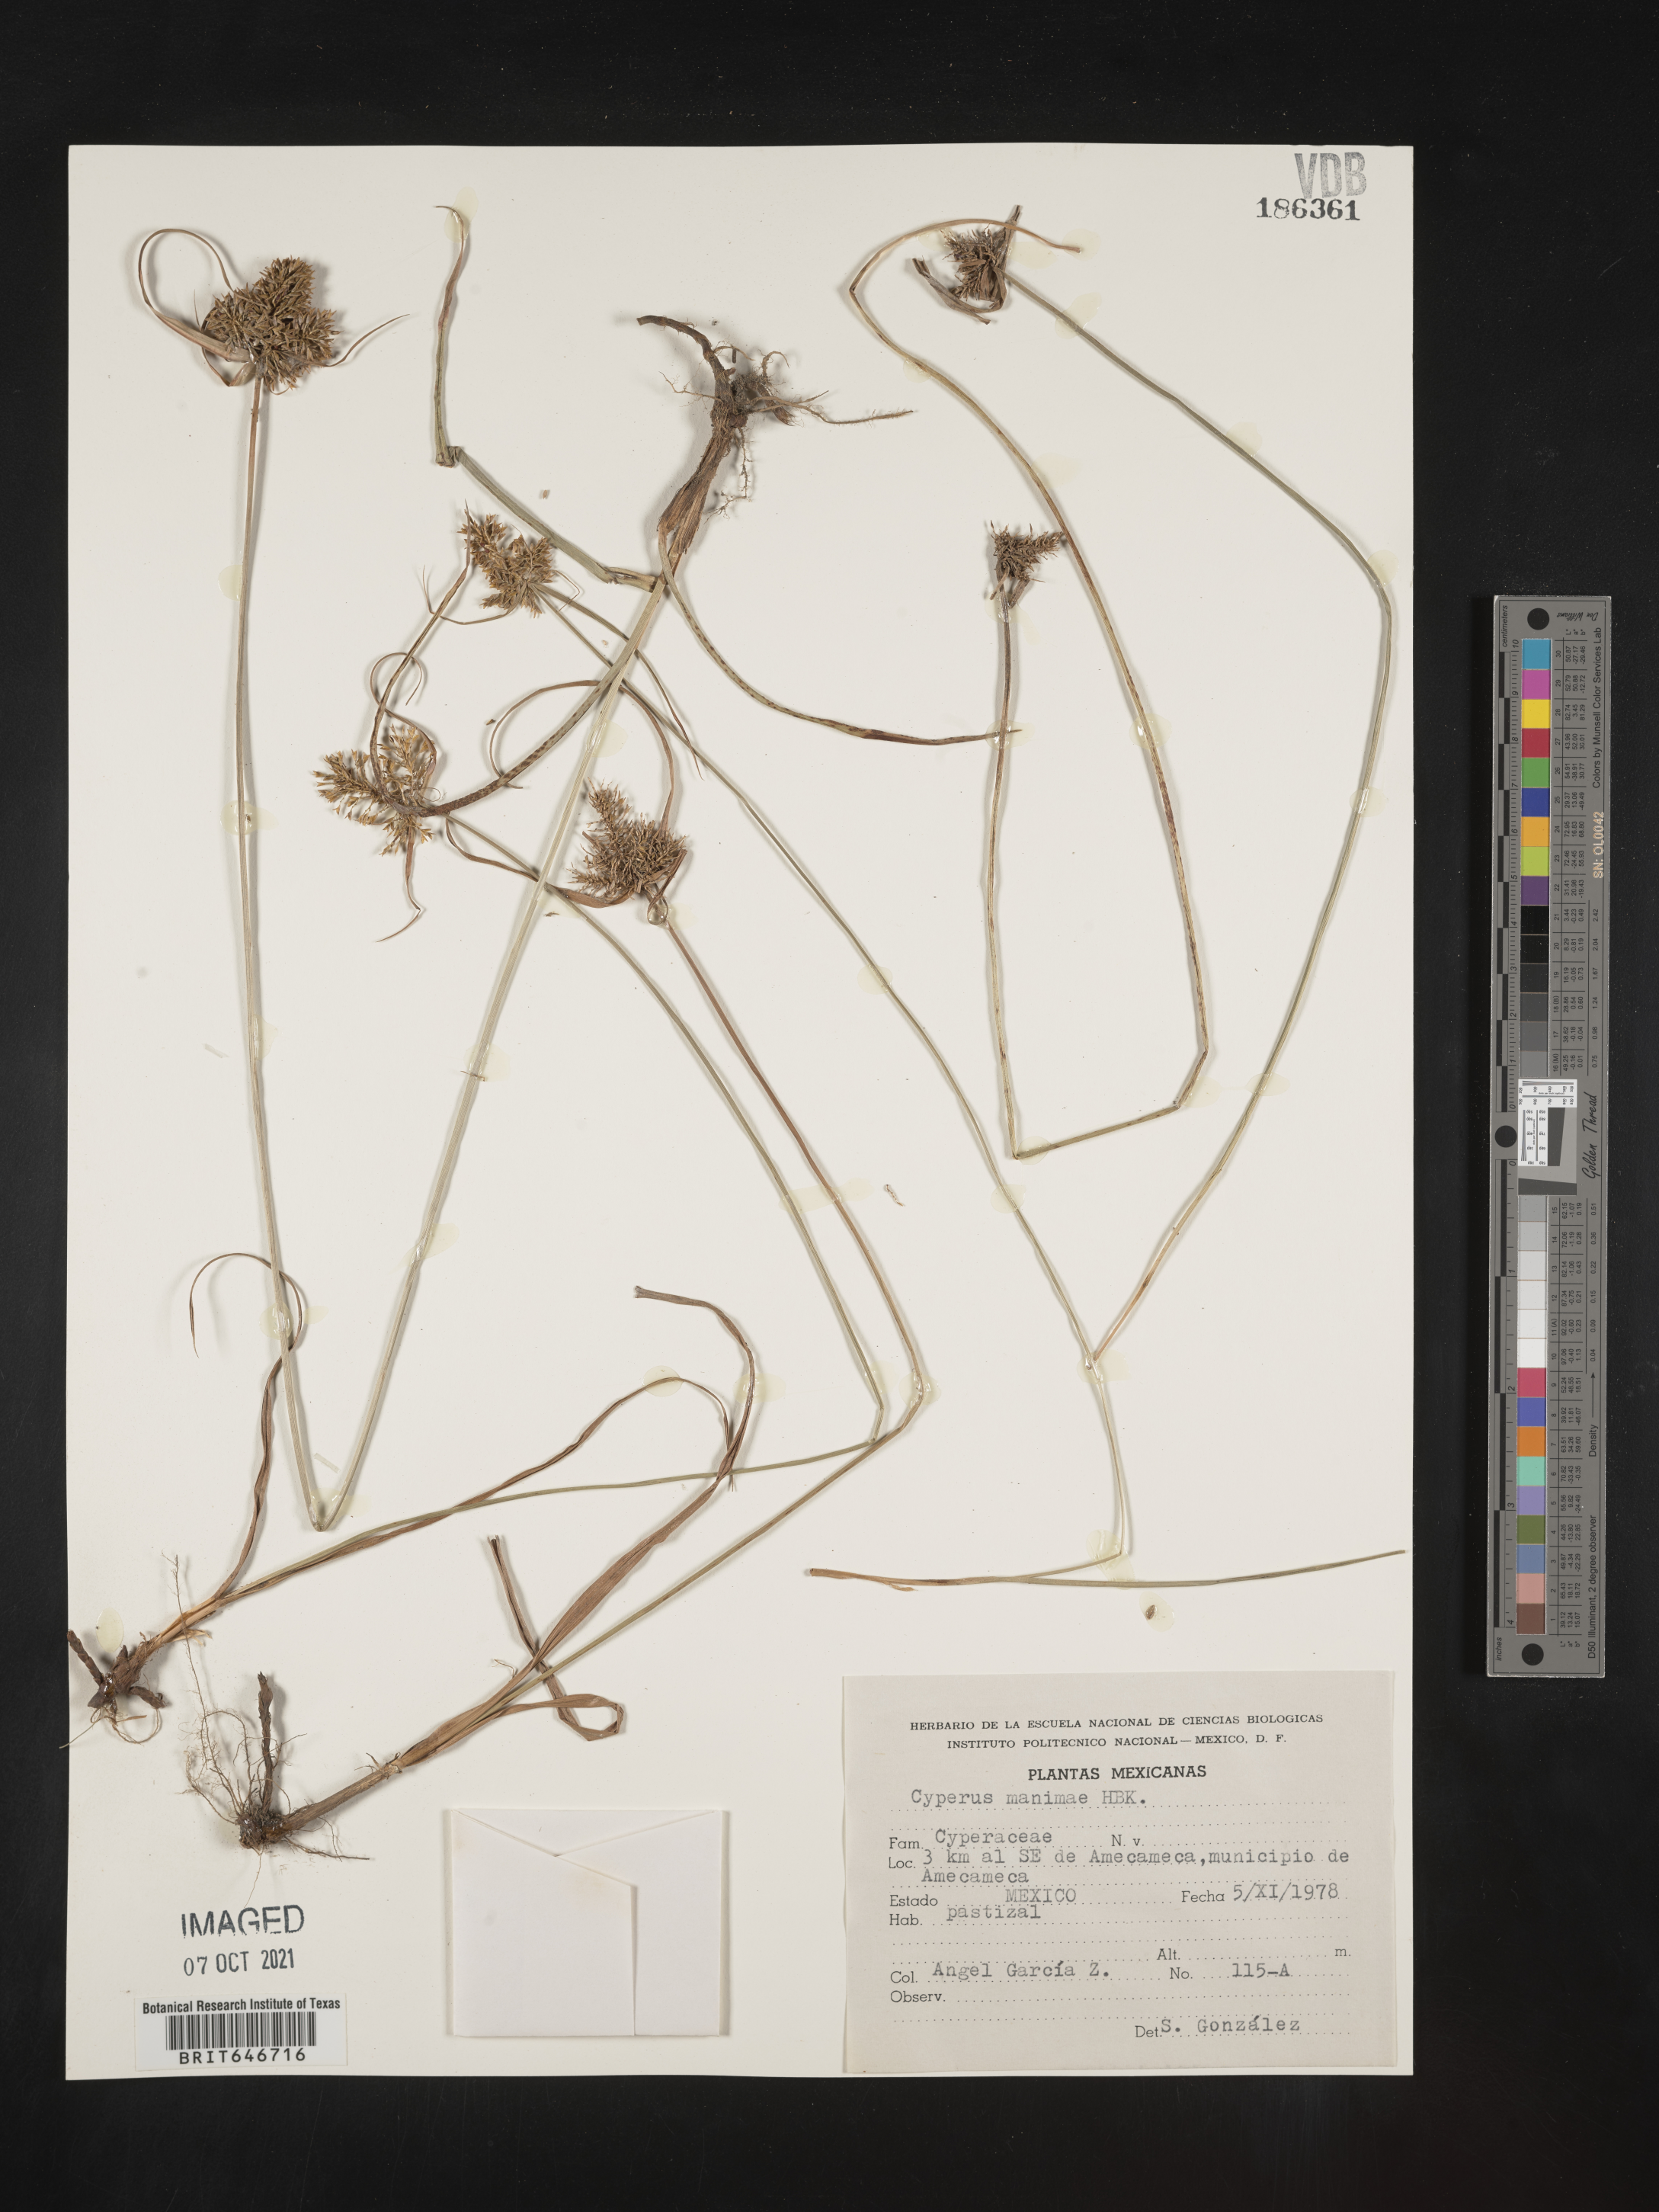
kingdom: Plantae
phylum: Tracheophyta
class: Liliopsida
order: Poales
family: Cyperaceae
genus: Cyperus
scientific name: Cyperus
